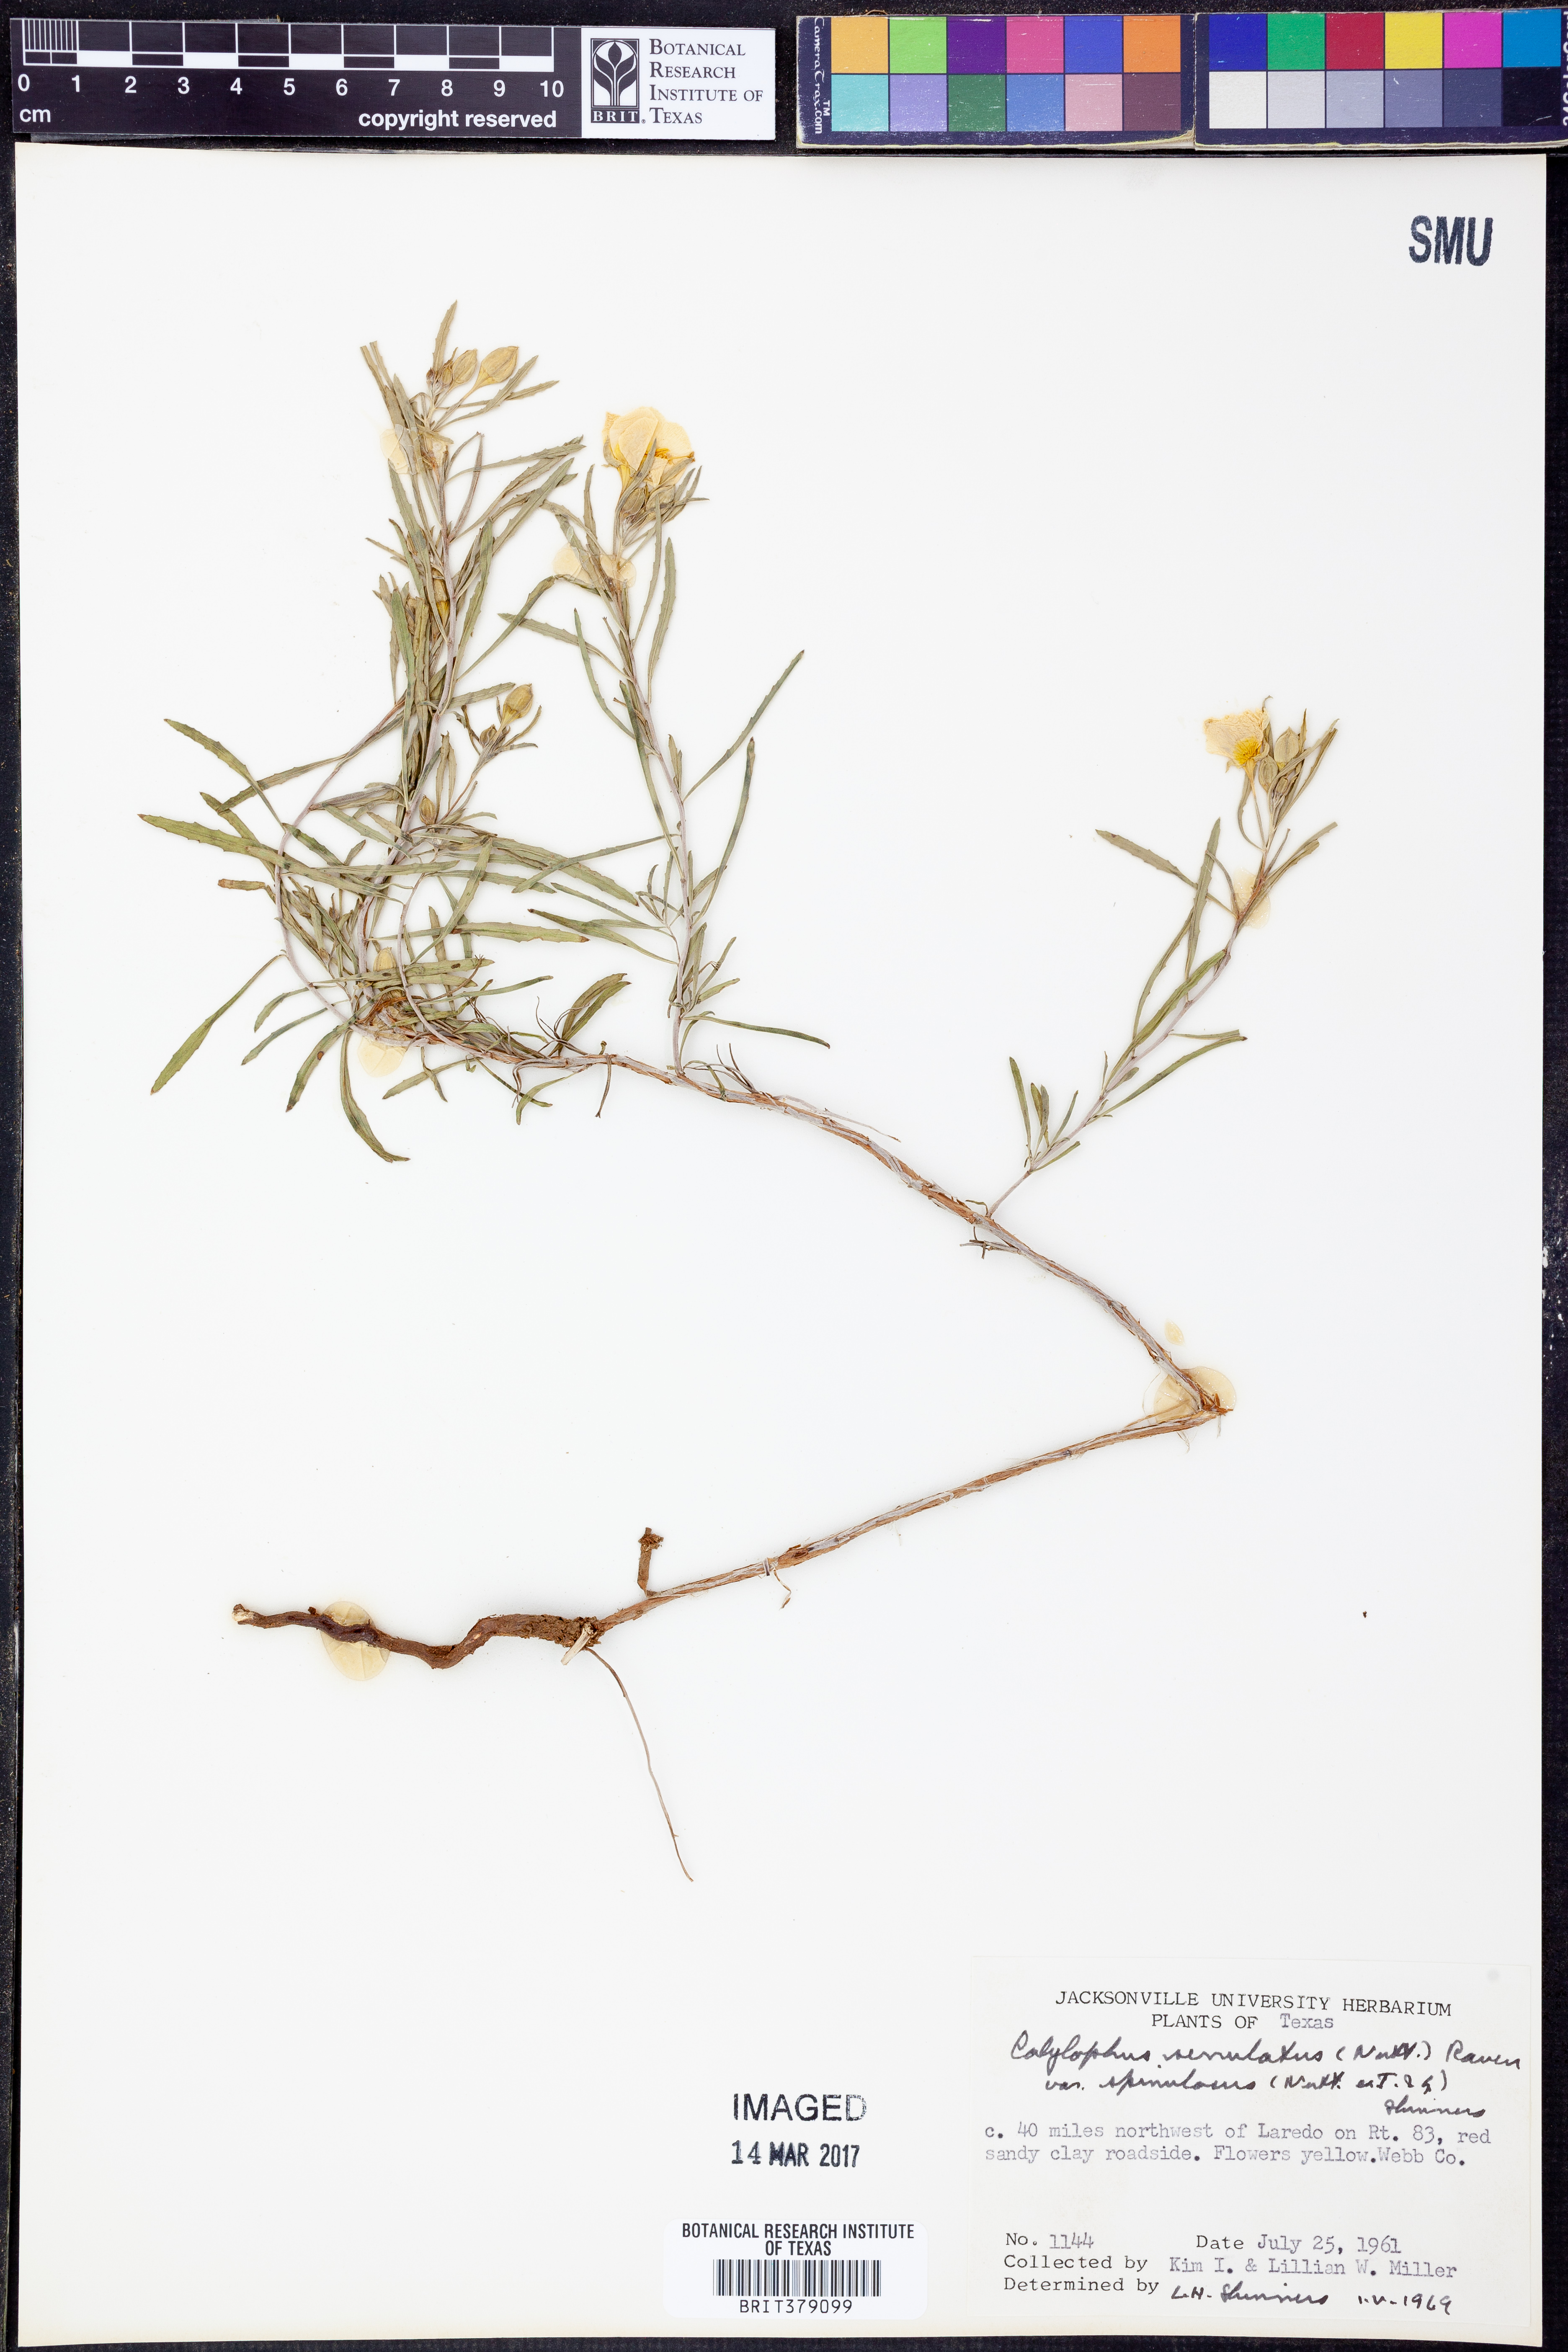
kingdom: Plantae
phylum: Tracheophyta
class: Magnoliopsida
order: Myrtales
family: Onagraceae
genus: Oenothera
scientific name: Oenothera serrulata
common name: Half-shrub calylophus
